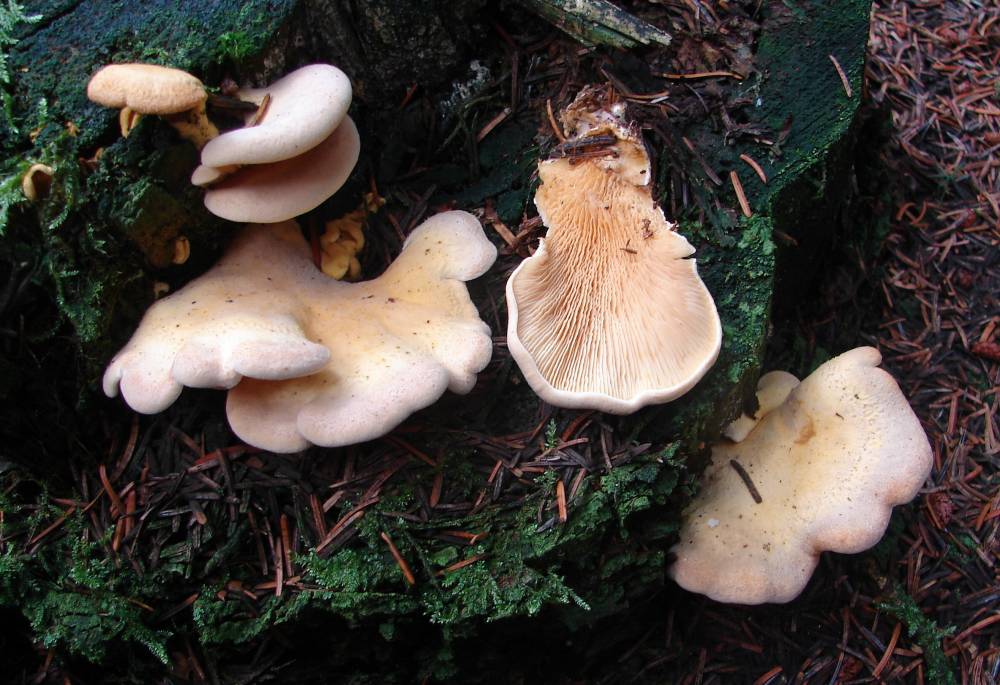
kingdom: Fungi
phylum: Basidiomycota
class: Agaricomycetes
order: Boletales
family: Tapinellaceae
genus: Tapinella
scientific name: Tapinella panuoides
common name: tømmer-viftesvamp
